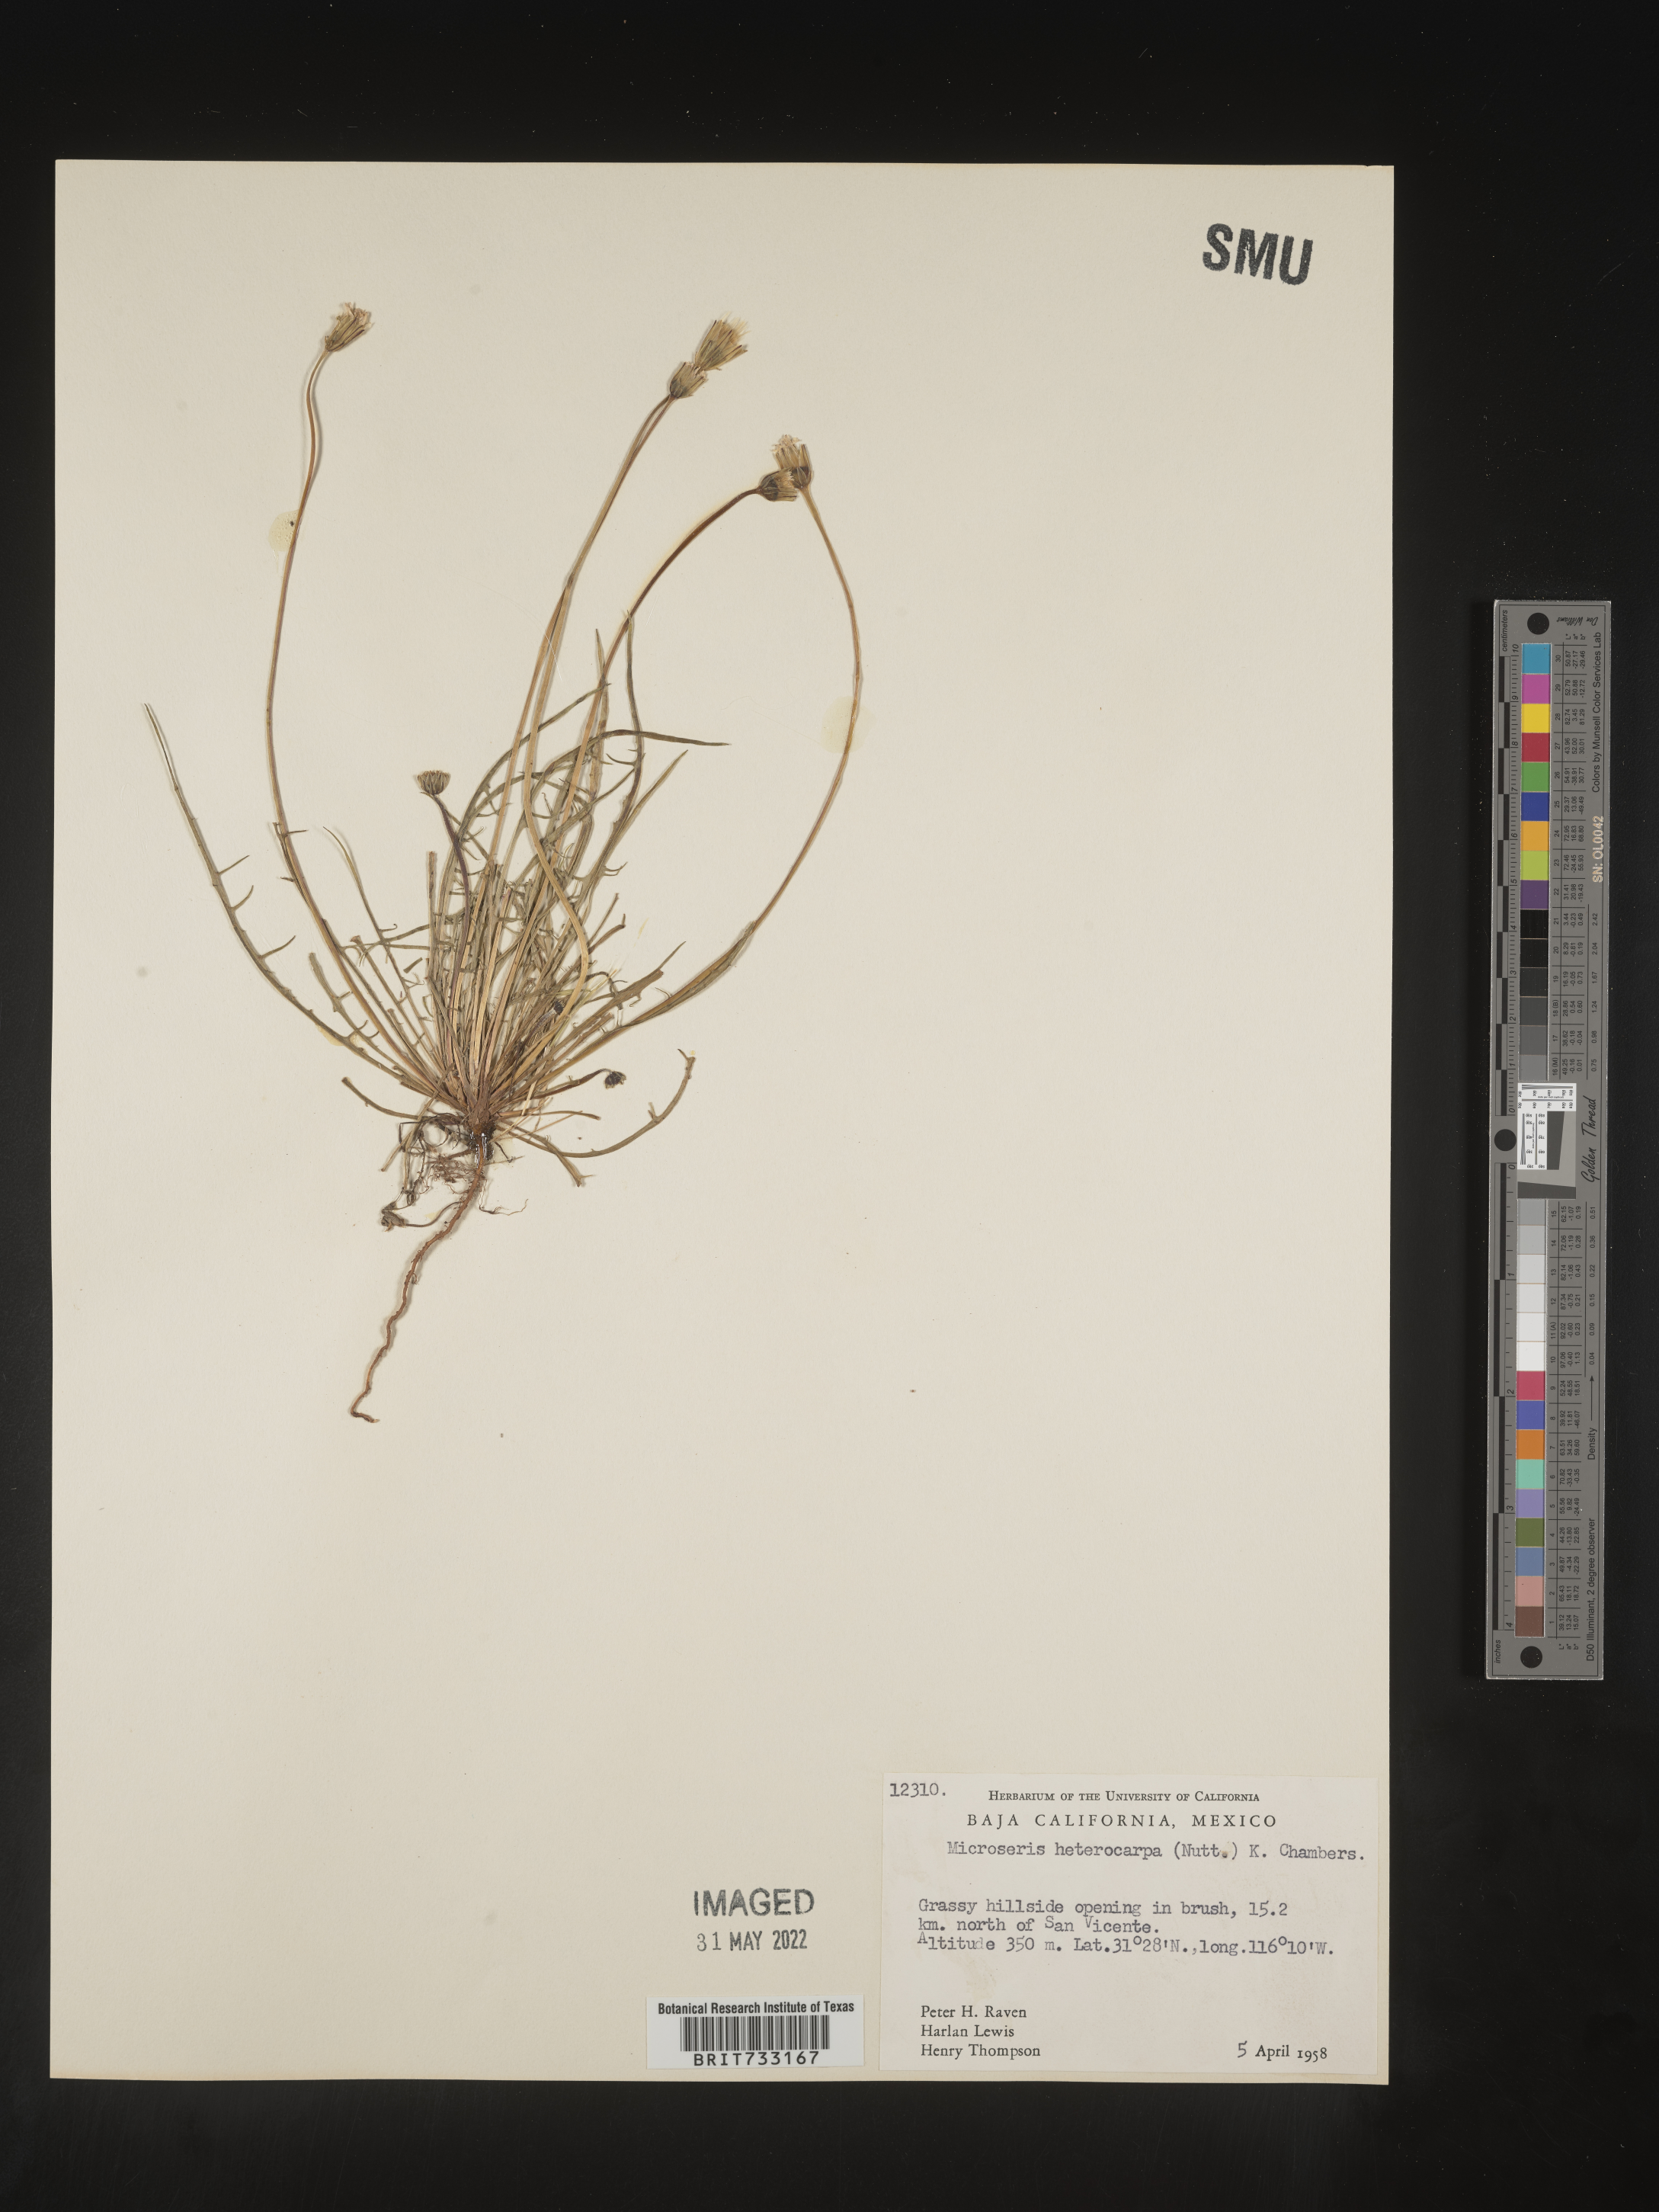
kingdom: Plantae
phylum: Tracheophyta
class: Magnoliopsida
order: Asterales
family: Asteraceae
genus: Microseris
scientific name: Microseris douglasii
